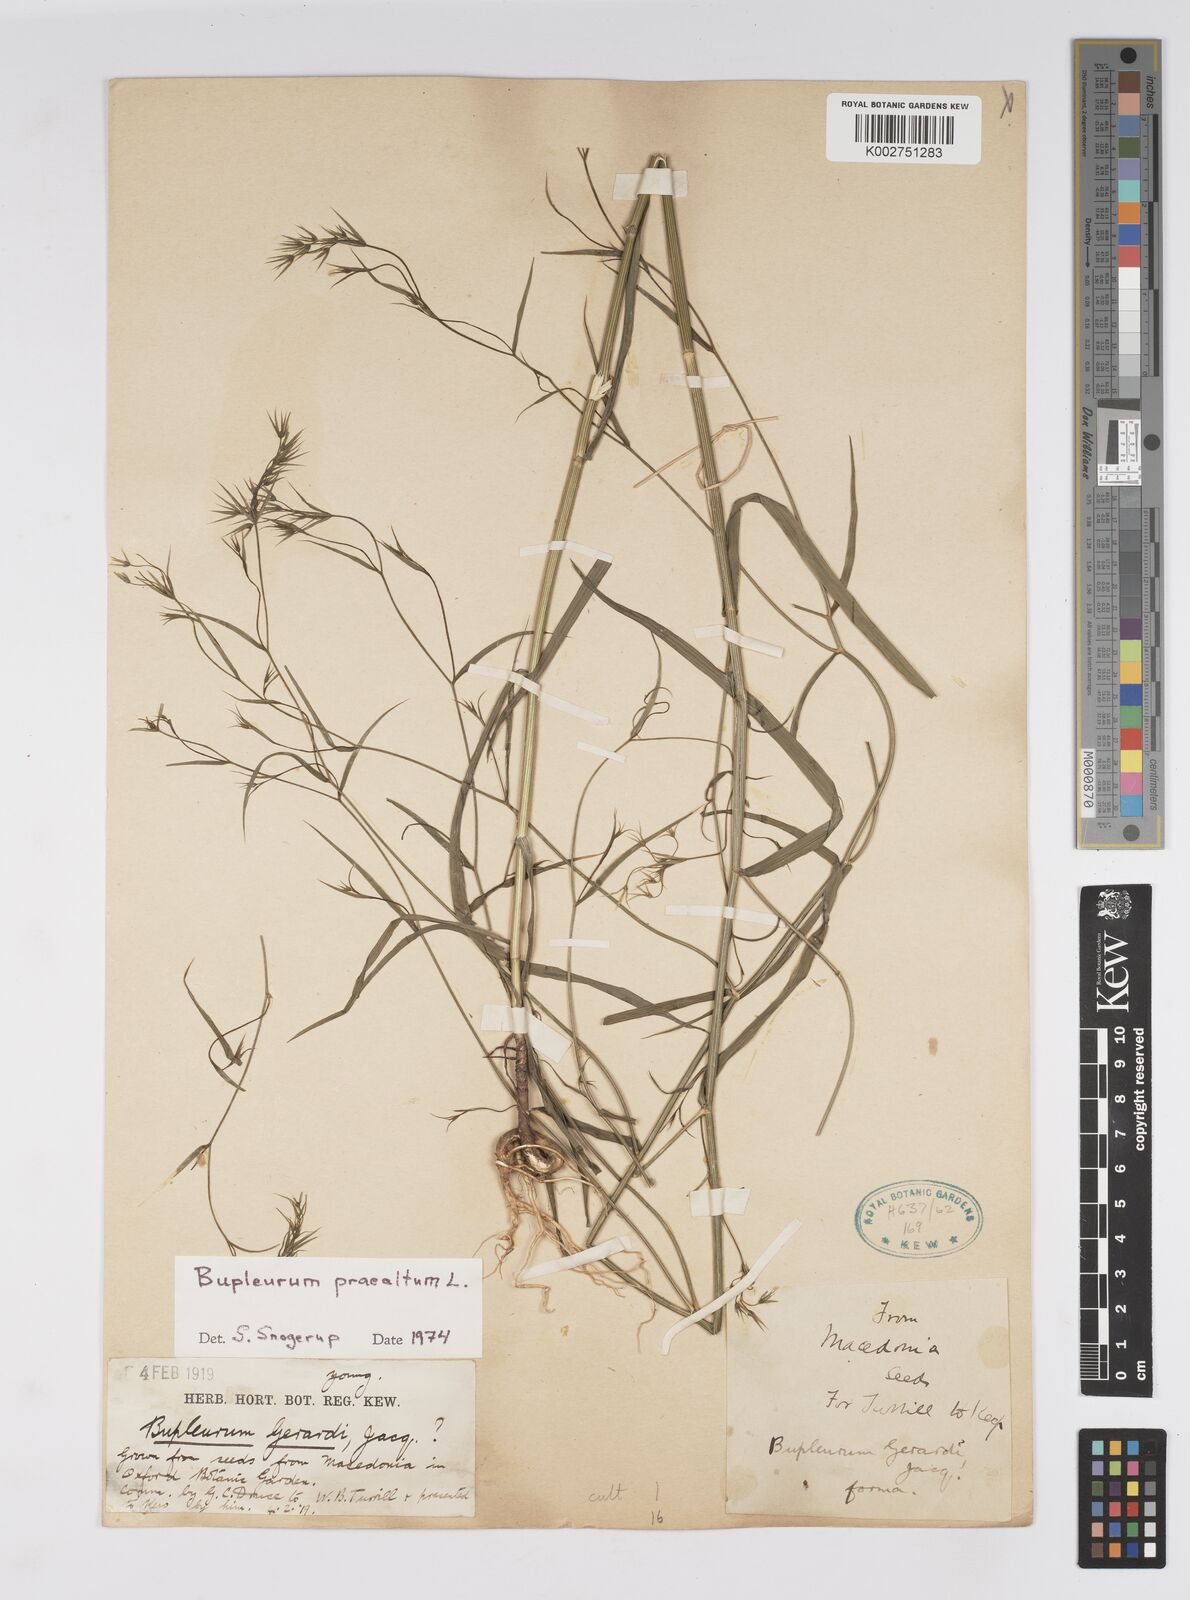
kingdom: Plantae
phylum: Tracheophyta
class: Magnoliopsida
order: Apiales
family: Apiaceae
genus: Bupleurum
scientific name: Bupleurum praealtum
